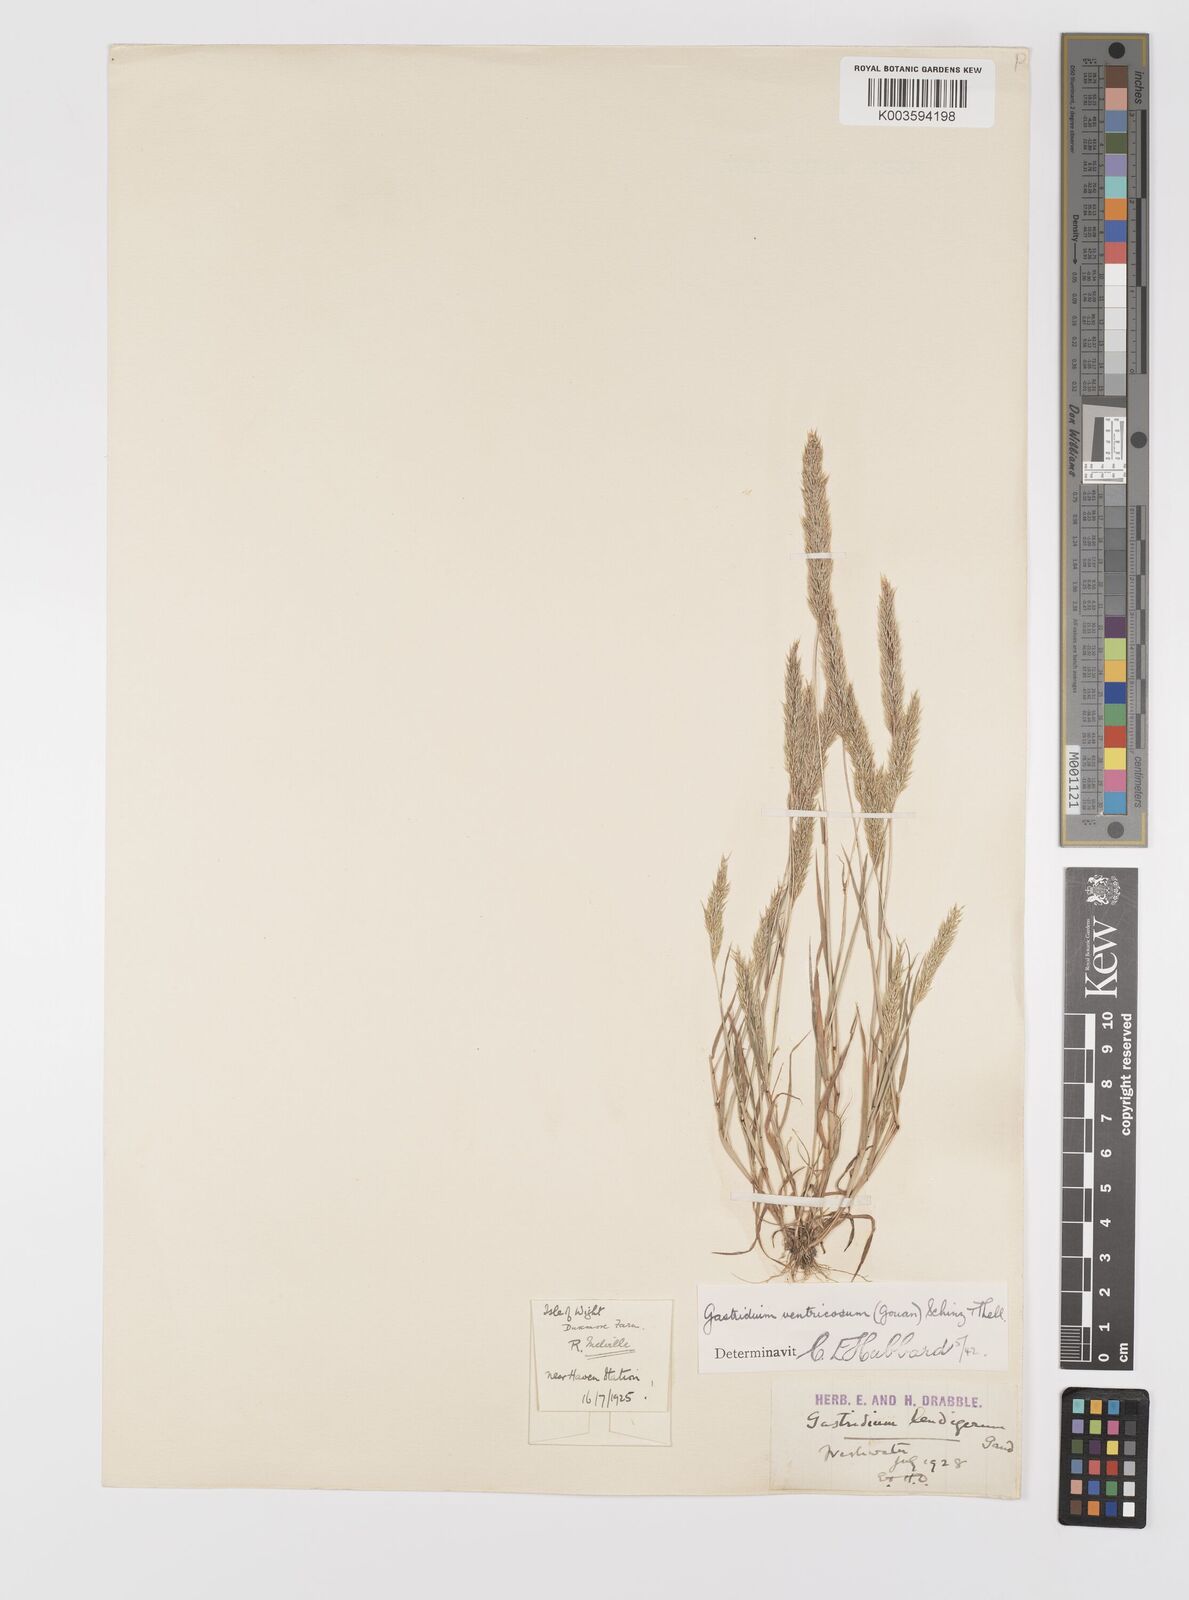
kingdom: Plantae
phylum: Tracheophyta
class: Liliopsida
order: Poales
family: Poaceae
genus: Gastridium
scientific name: Gastridium ventricosum
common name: Nit-grass
